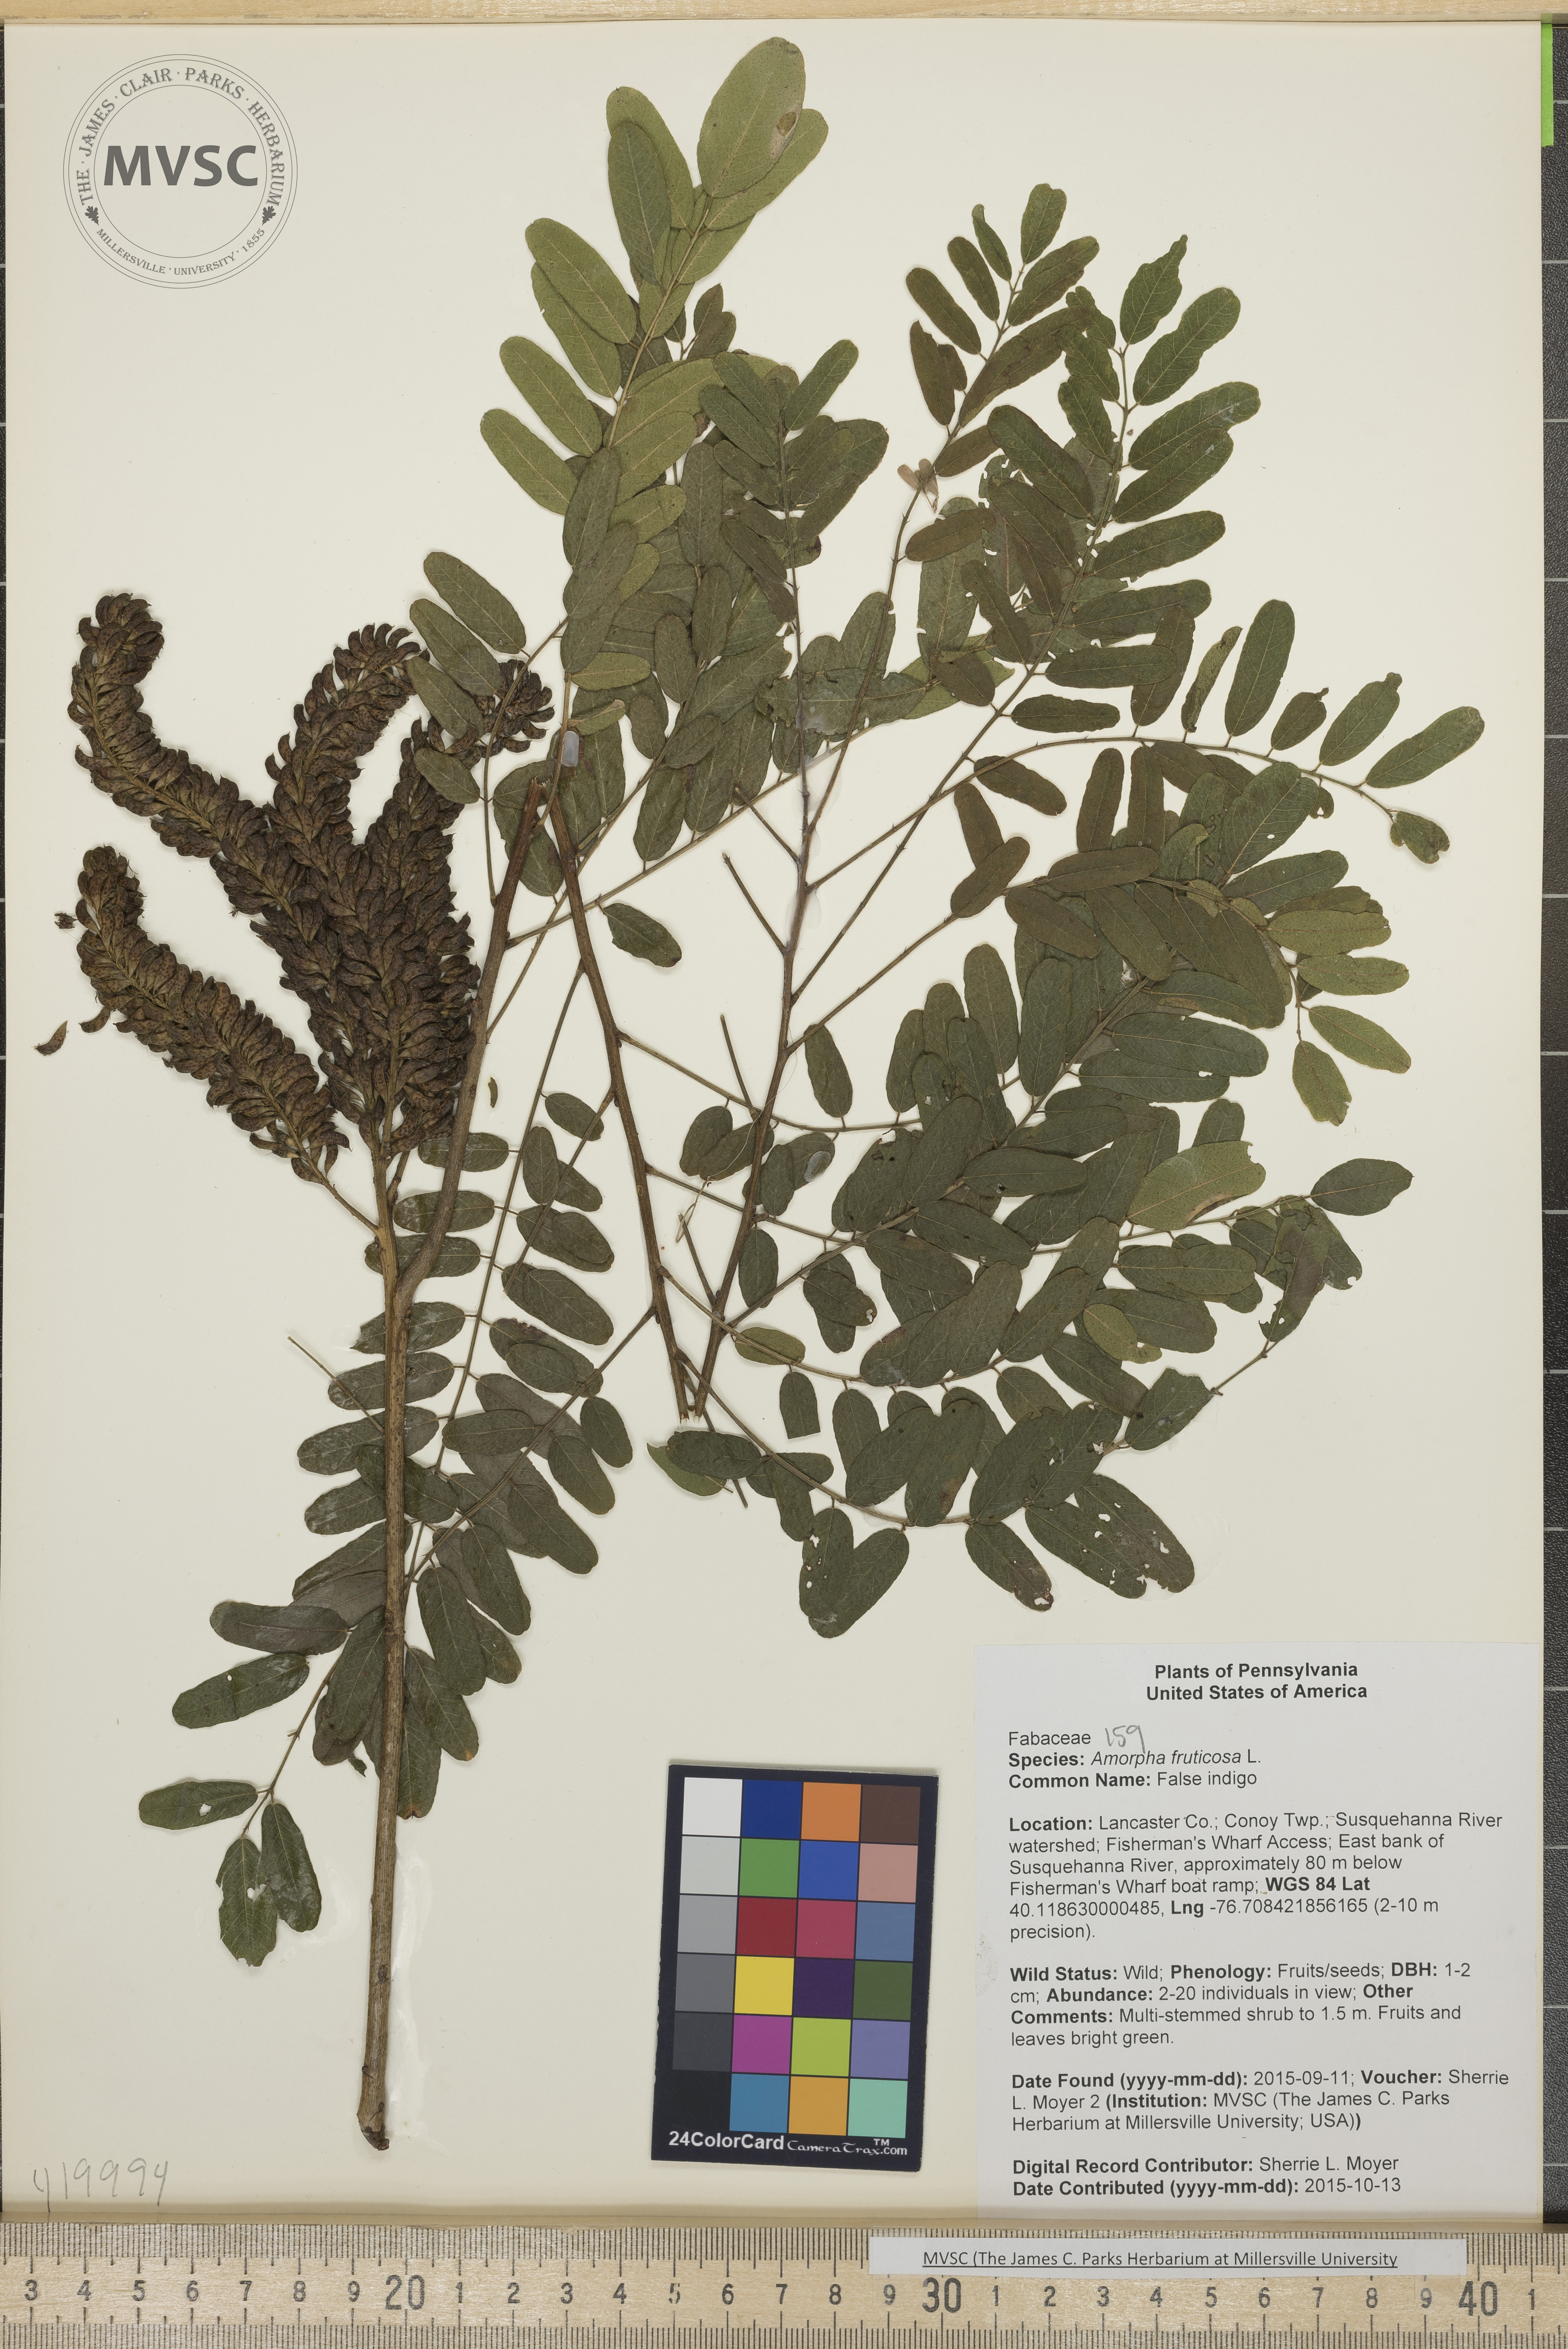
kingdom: Plantae
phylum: Tracheophyta
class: Magnoliopsida
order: Fabales
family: Fabaceae
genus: Amorpha
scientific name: Amorpha fruticosa
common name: False indigo
